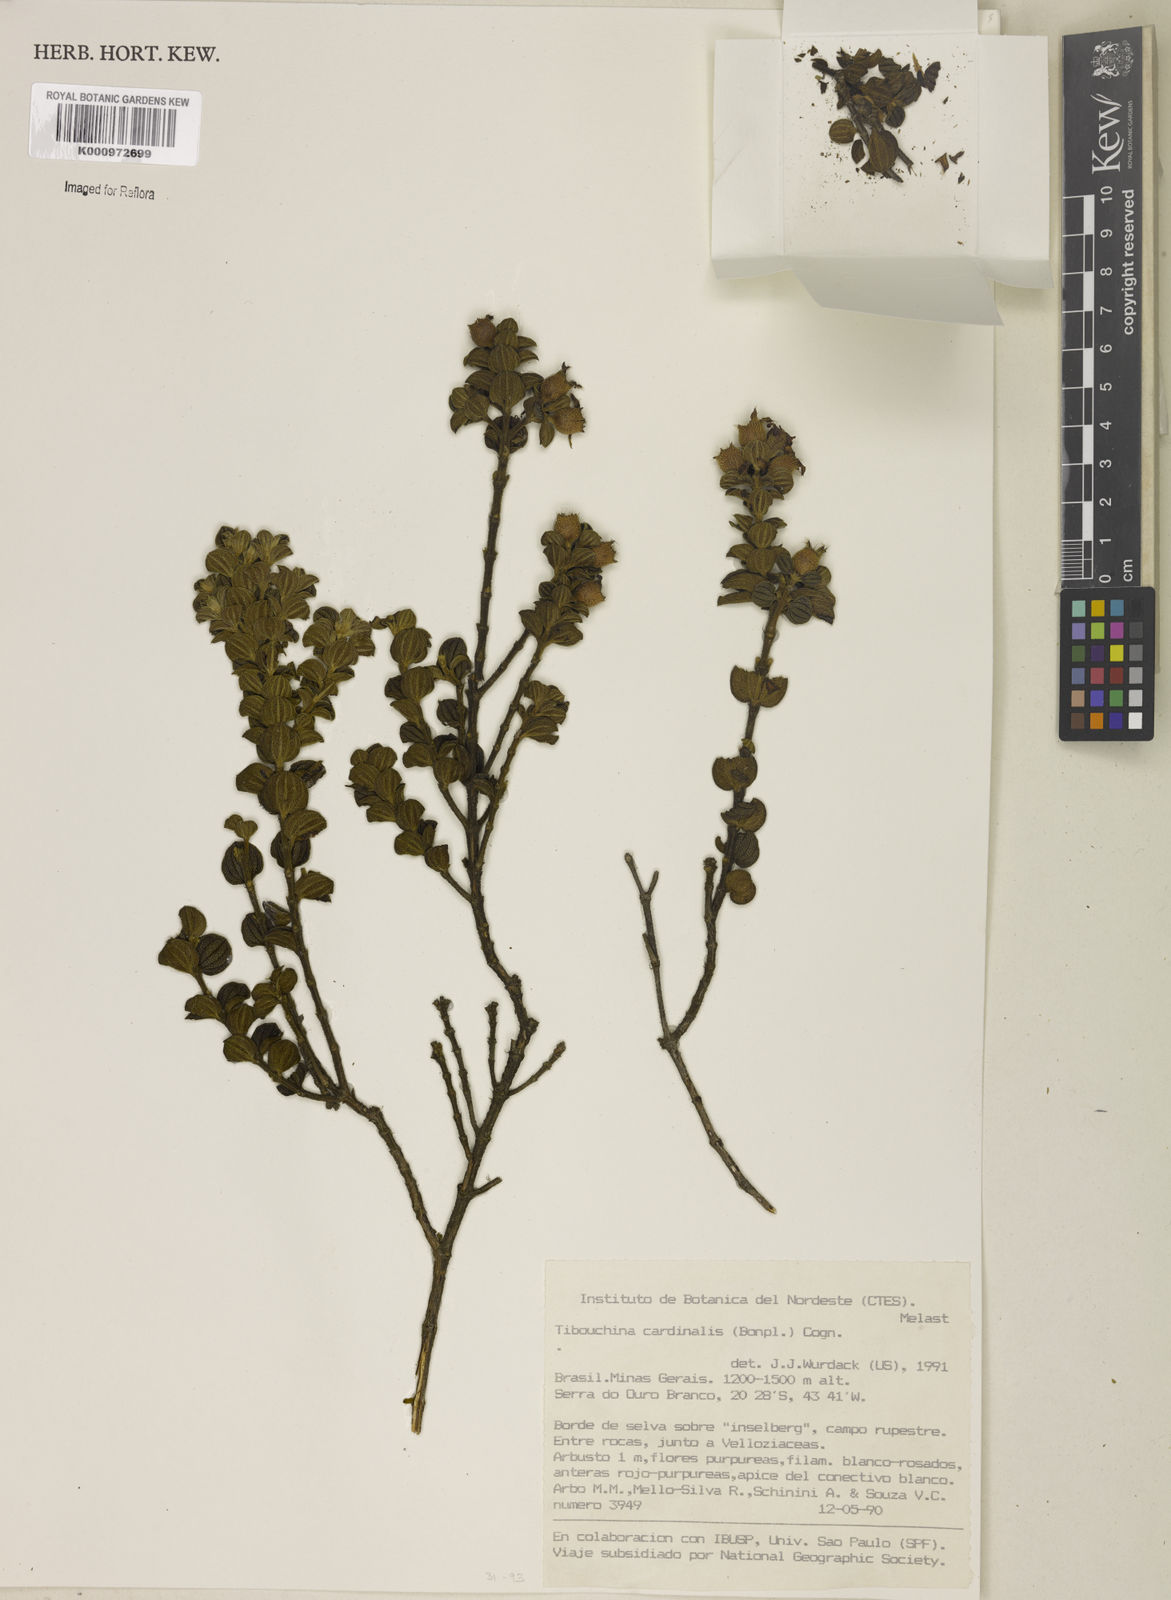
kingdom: Plantae
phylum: Tracheophyta
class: Magnoliopsida
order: Myrtales
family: Melastomataceae
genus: Chaetogastra
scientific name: Chaetogastra cardinalis
